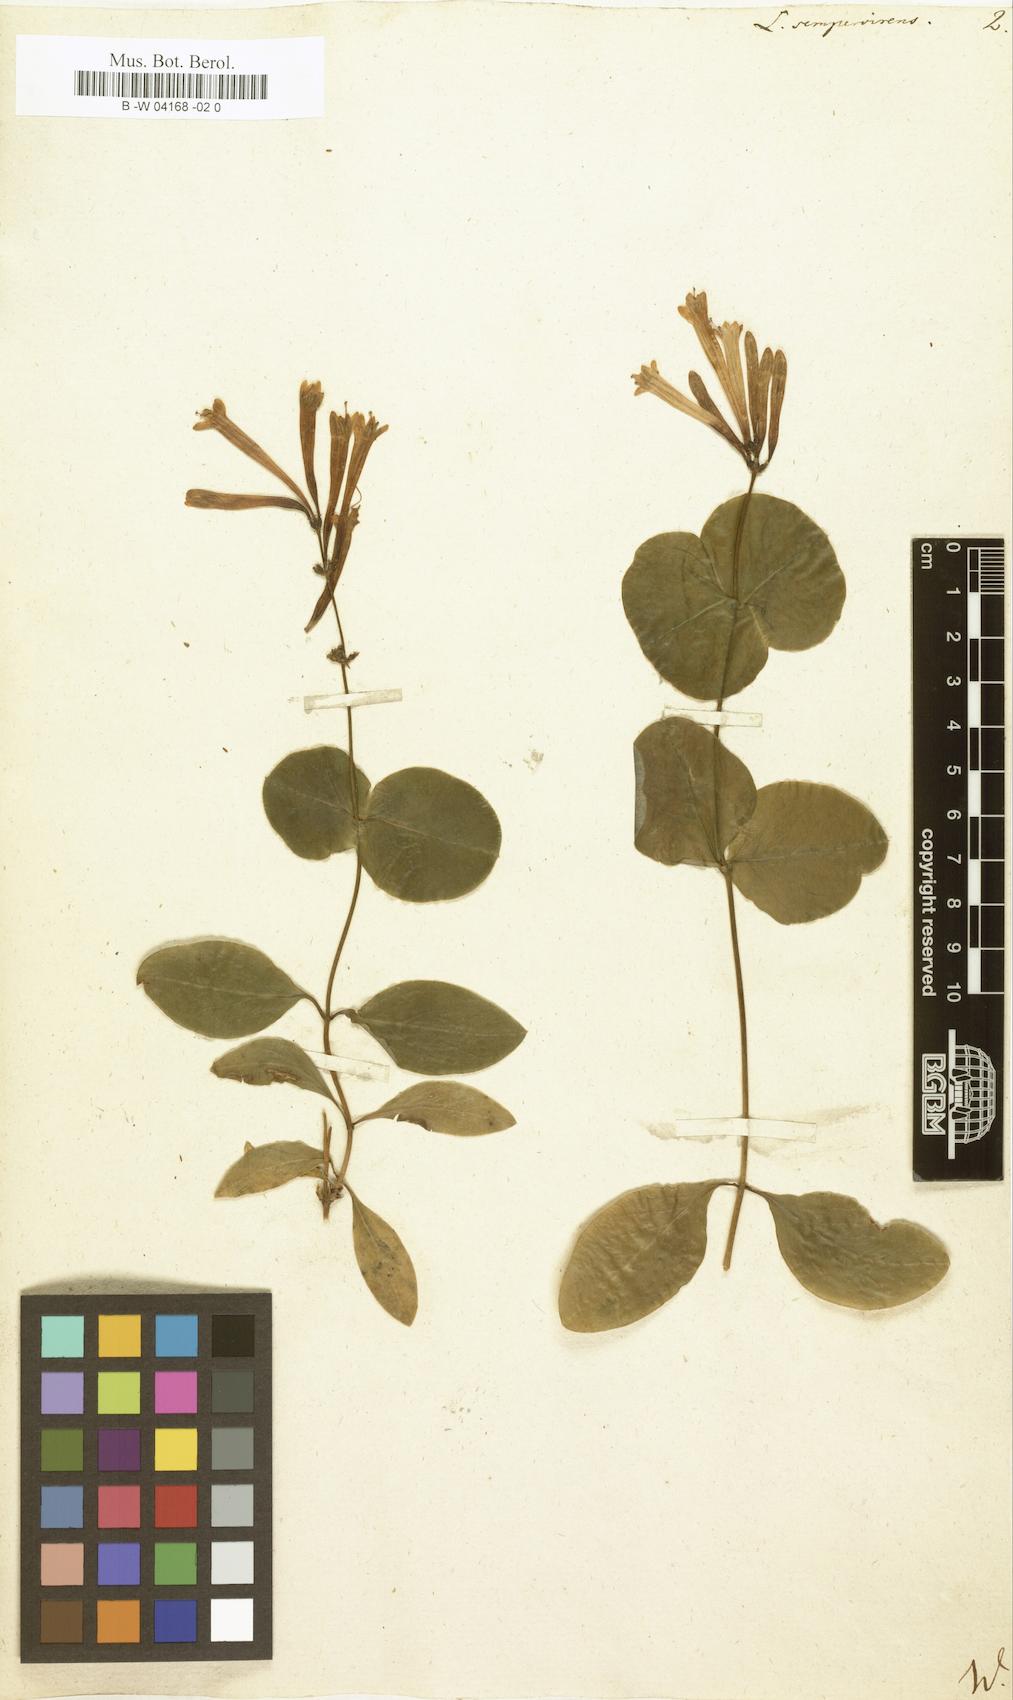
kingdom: Plantae
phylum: Tracheophyta
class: Magnoliopsida
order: Dipsacales
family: Caprifoliaceae
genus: Lonicera
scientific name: Lonicera sempervirens
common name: Coral honeysuckle
